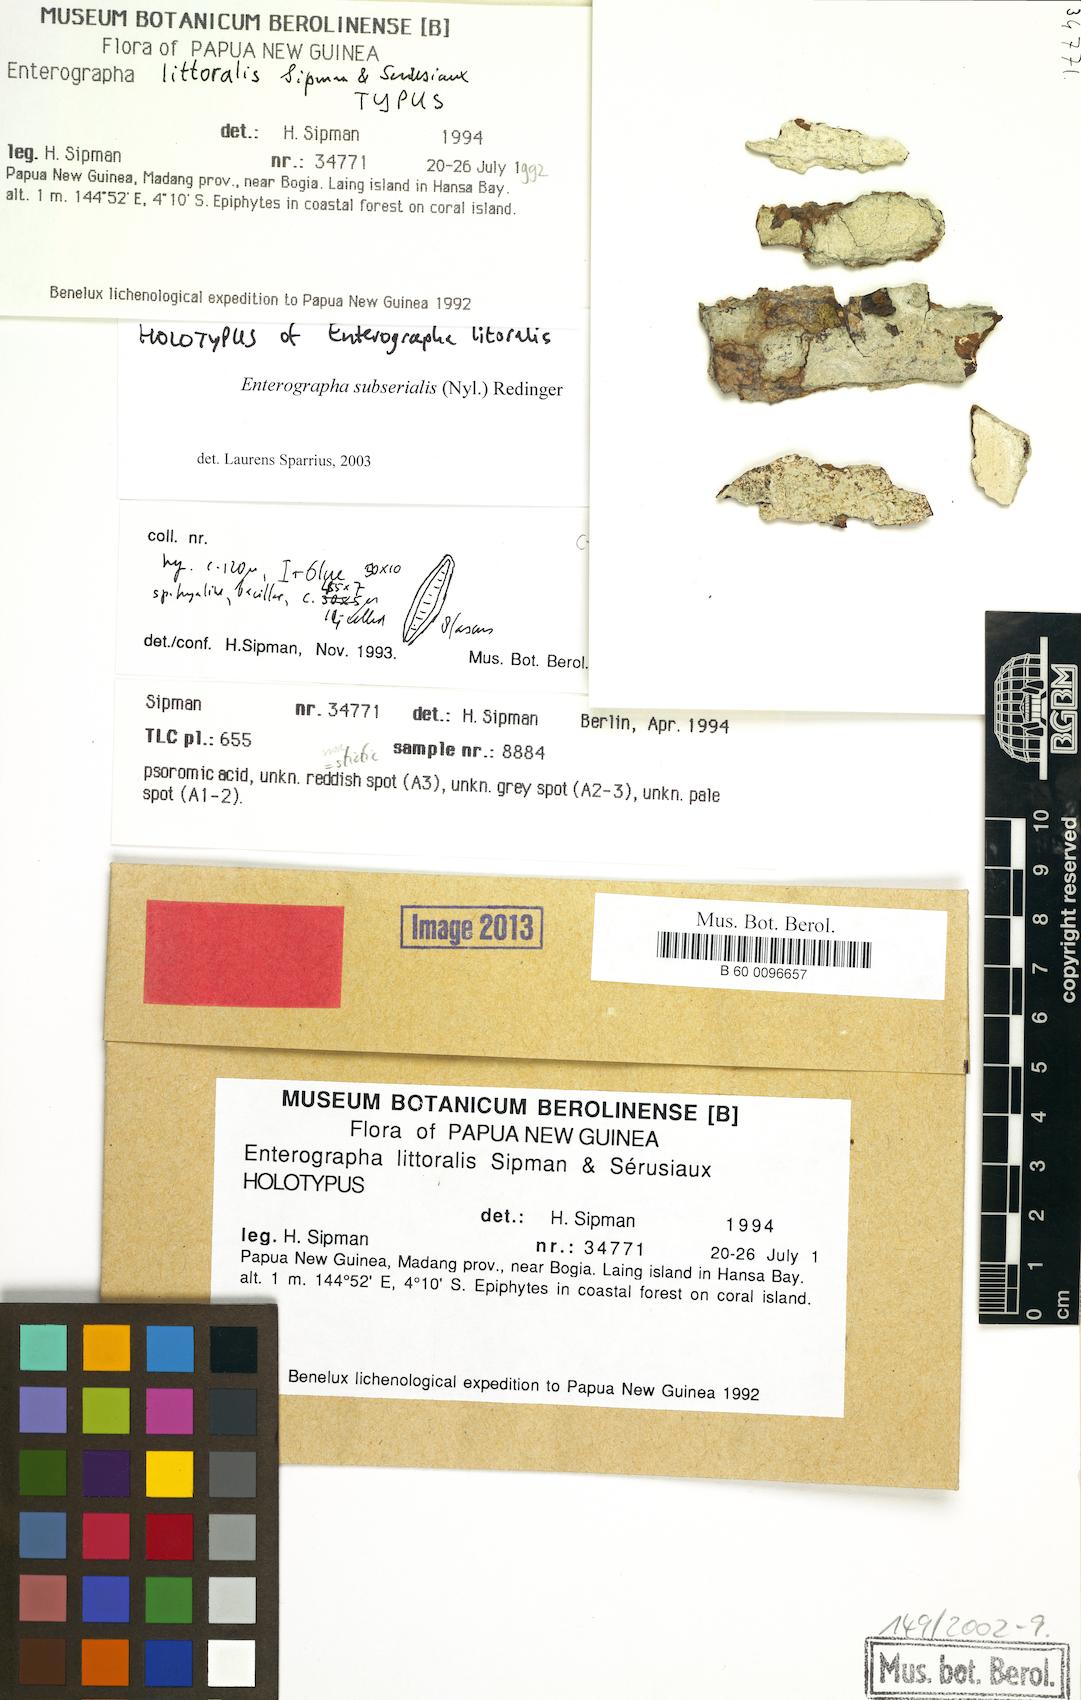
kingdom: Fungi
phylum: Ascomycota
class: Arthoniomycetes
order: Arthoniales
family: Roccellaceae
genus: Enterographa
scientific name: Enterographa littoralis
